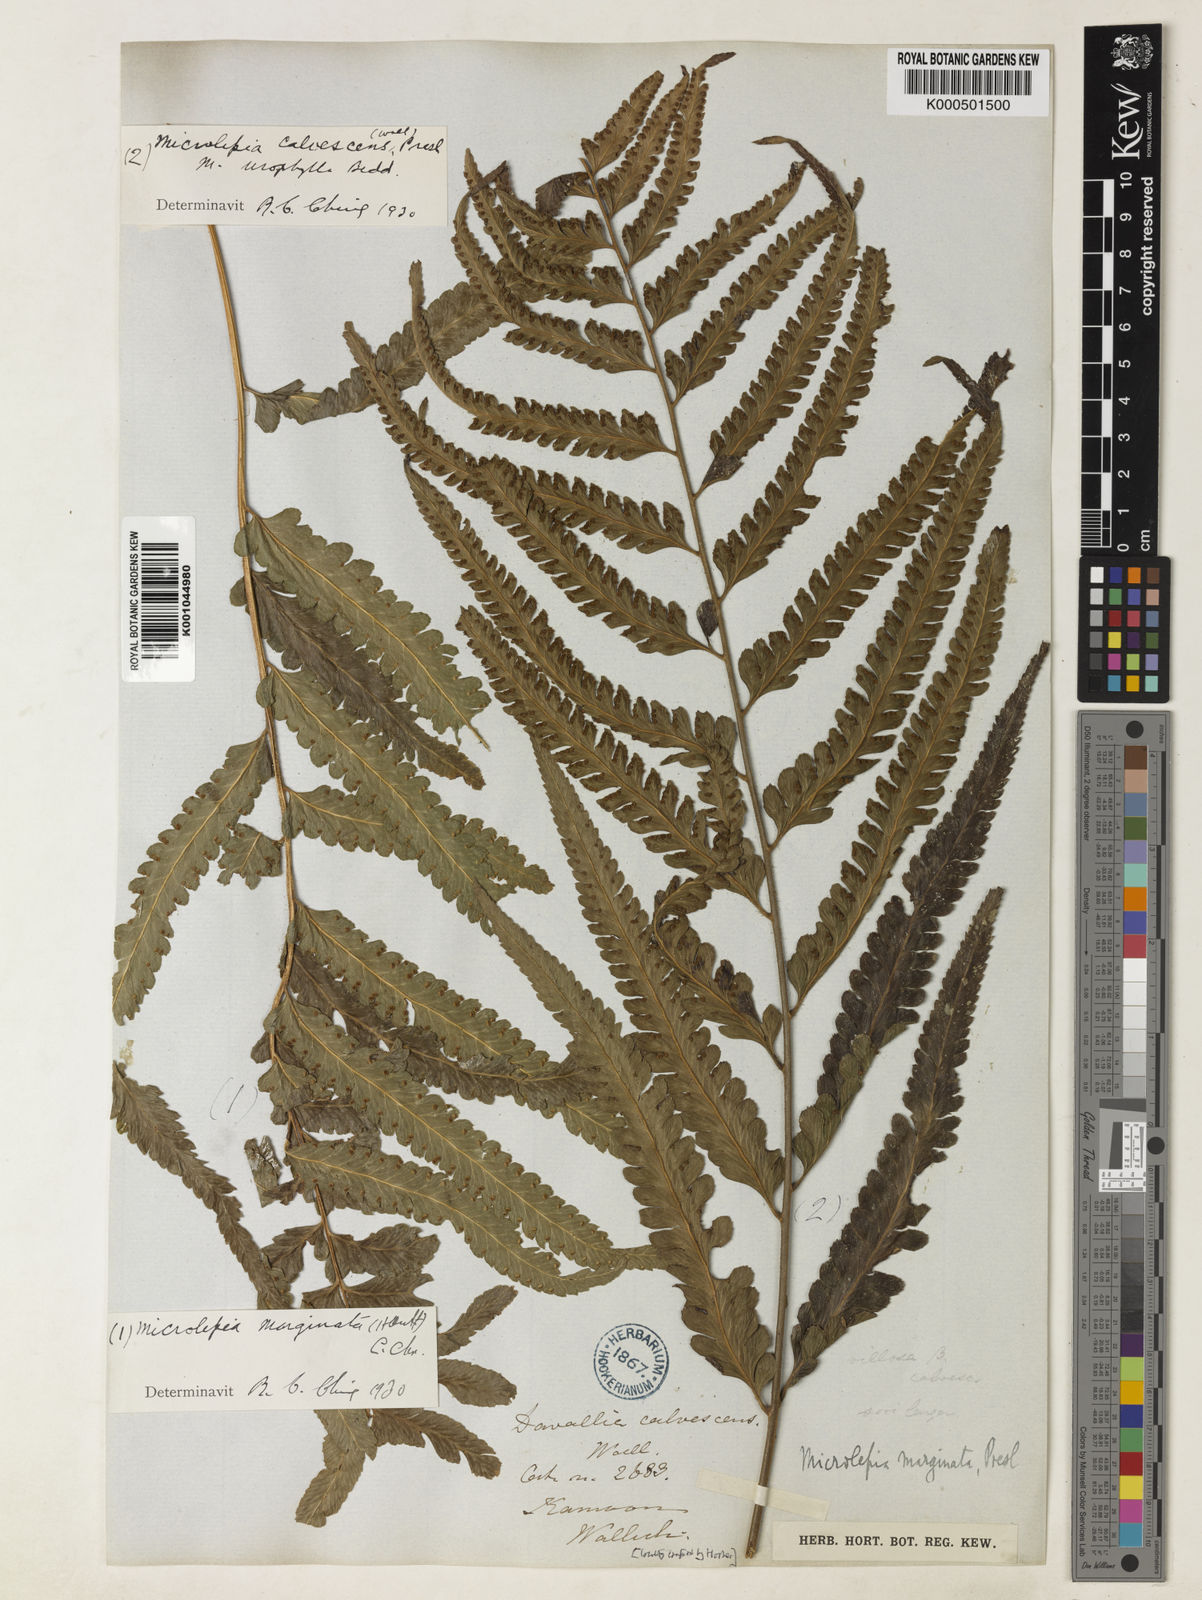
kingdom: Plantae
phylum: Tracheophyta
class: Polypodiopsida
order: Polypodiales
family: Dennstaedtiaceae
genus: Microlepia
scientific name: Microlepia marginata
